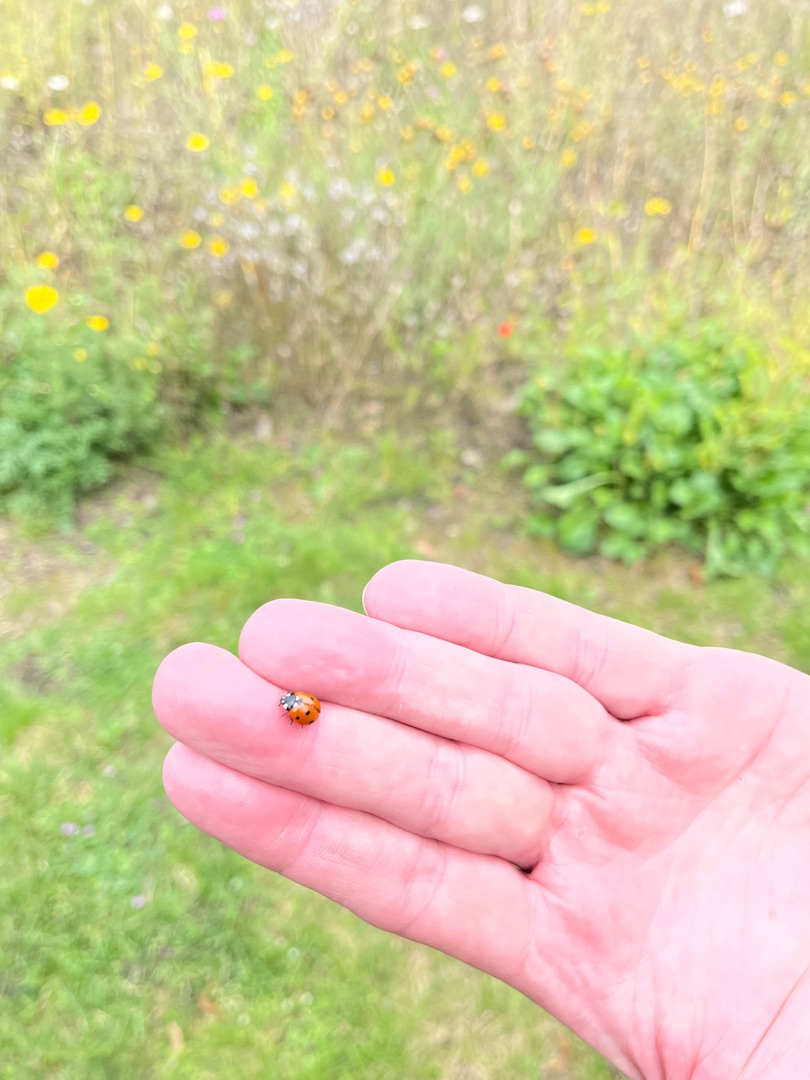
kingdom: Animalia
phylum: Arthropoda
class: Insecta
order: Coleoptera
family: Coccinellidae
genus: Coccinella
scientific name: Coccinella septempunctata
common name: Syvplettet mariehøne
